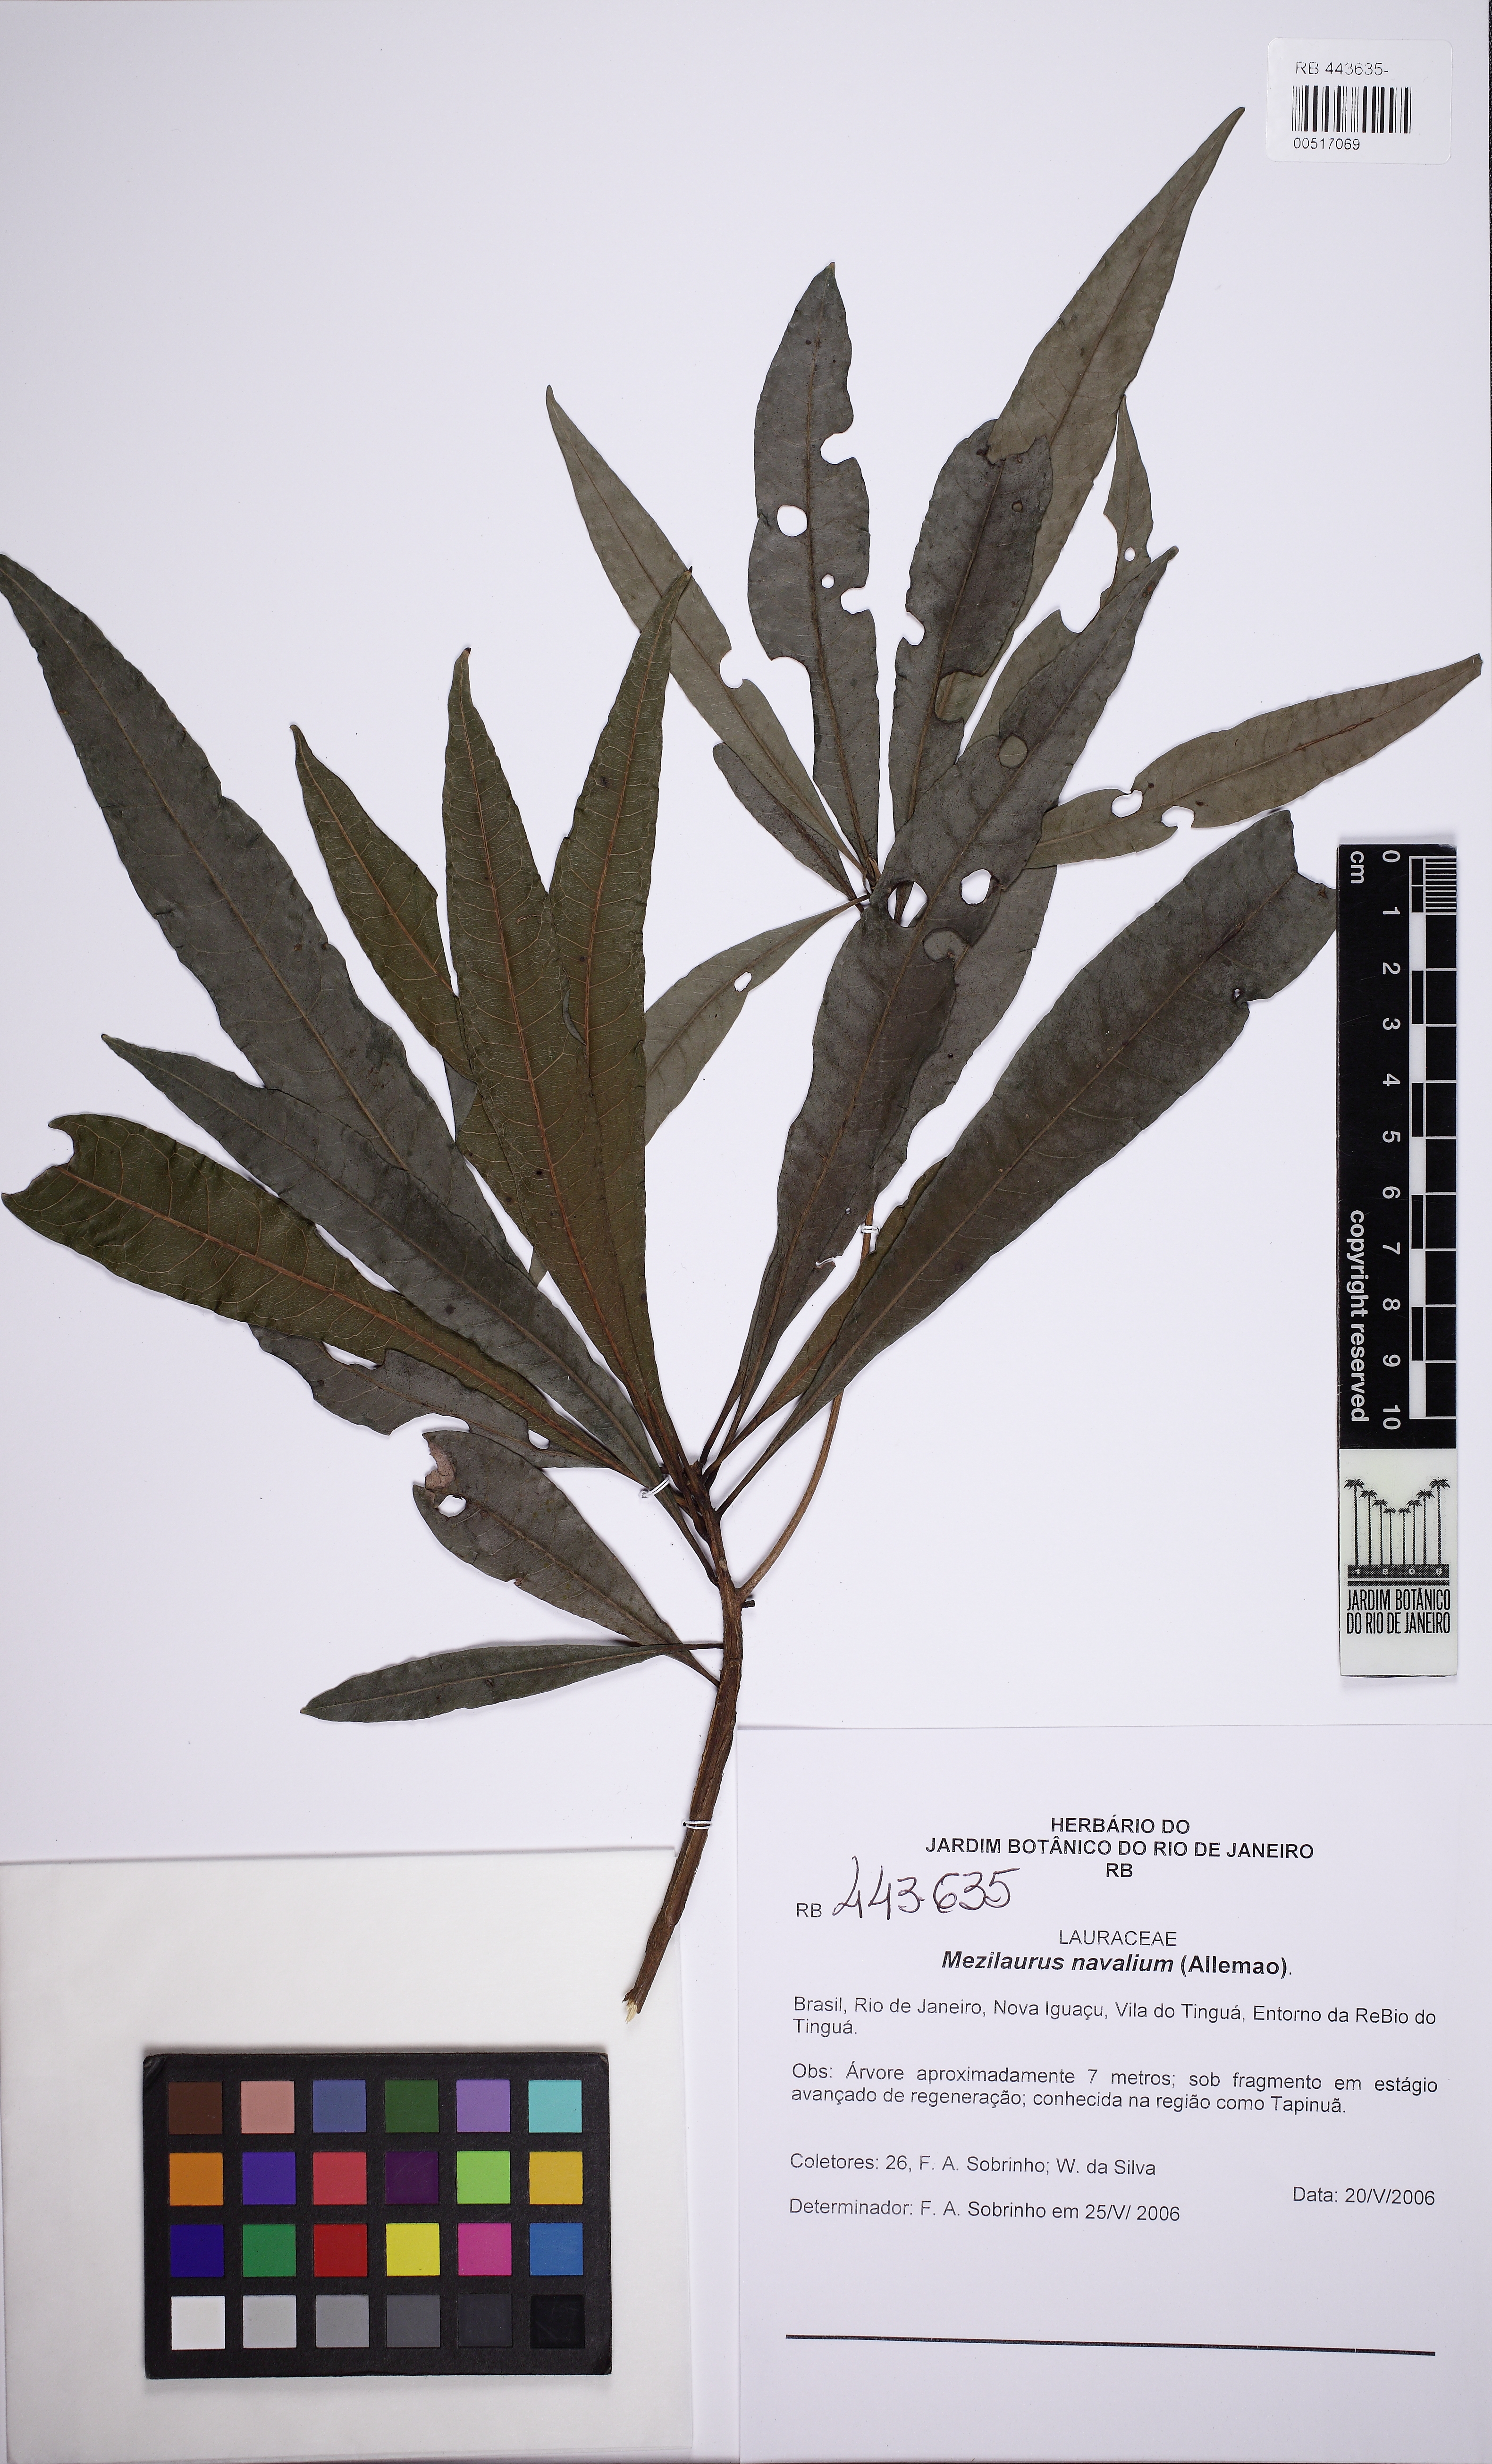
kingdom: Plantae
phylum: Tracheophyta
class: Magnoliopsida
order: Laurales
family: Lauraceae
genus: Mezilaurus
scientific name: Mezilaurus navalium
